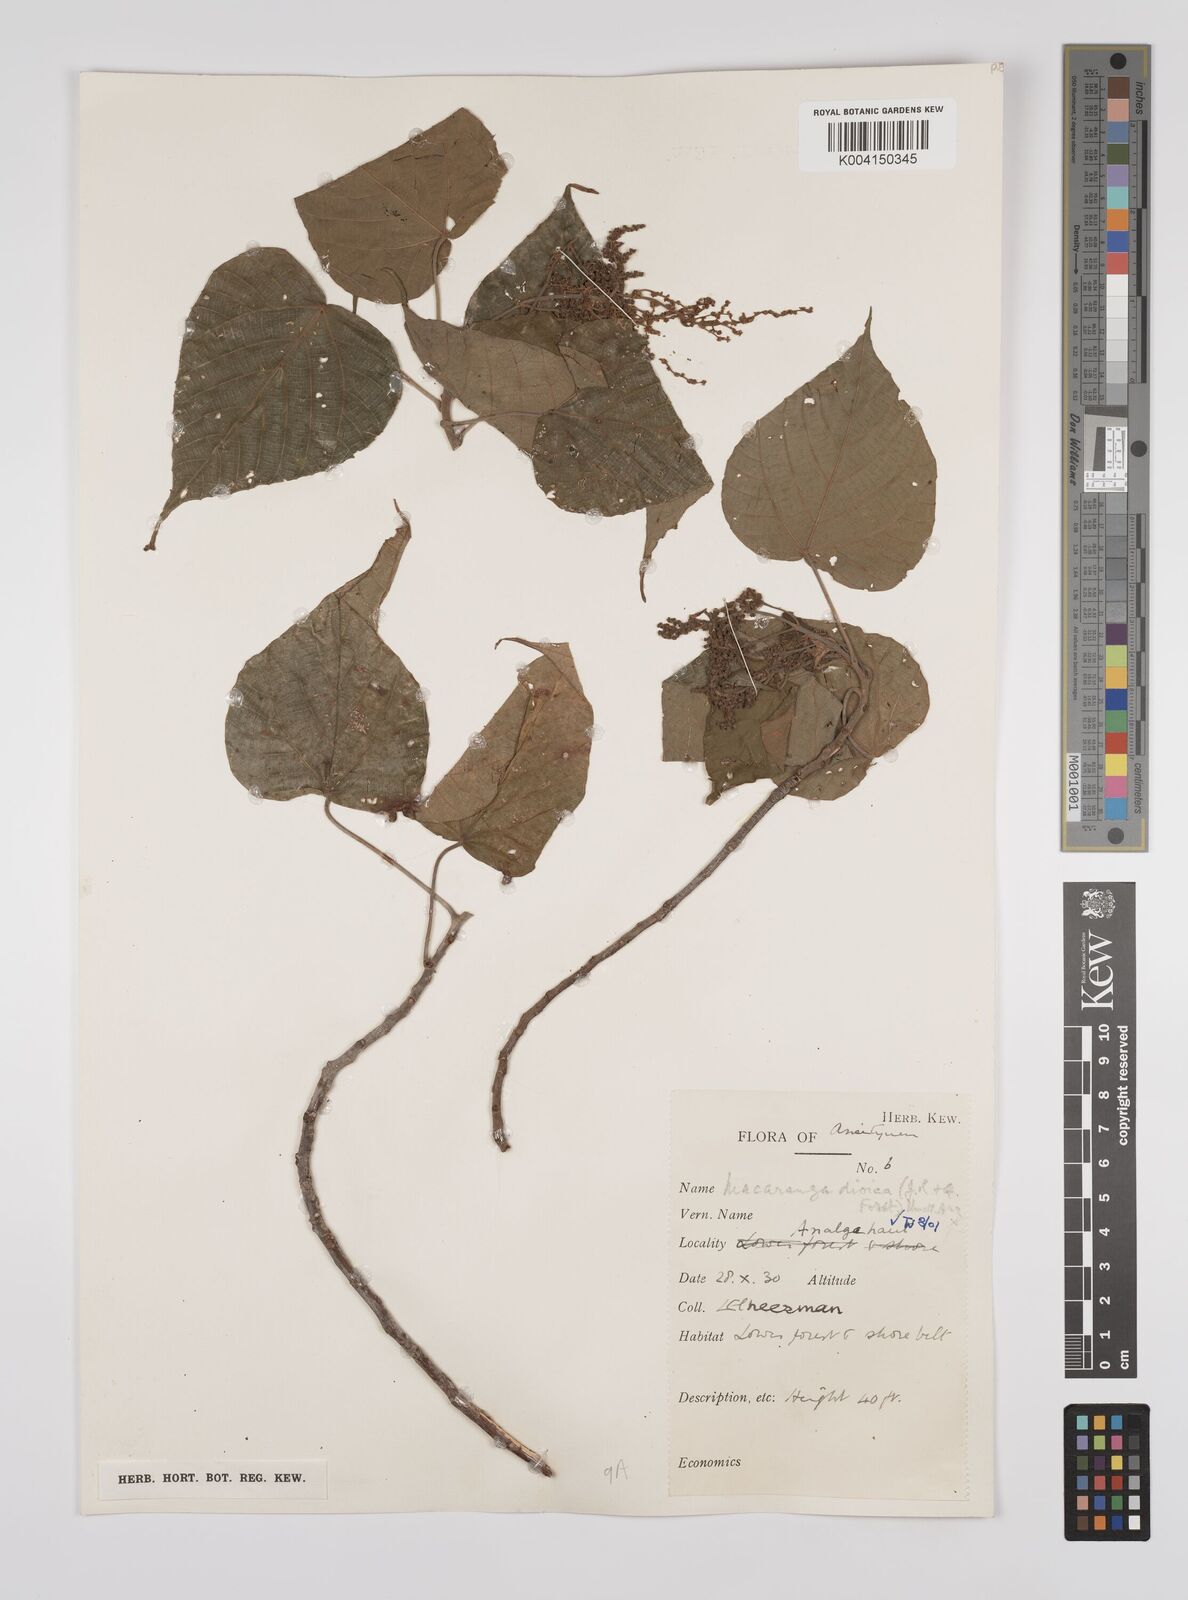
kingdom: Plantae
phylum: Tracheophyta
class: Magnoliopsida
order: Malpighiales
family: Euphorbiaceae
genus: Macaranga
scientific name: Macaranga dioica
